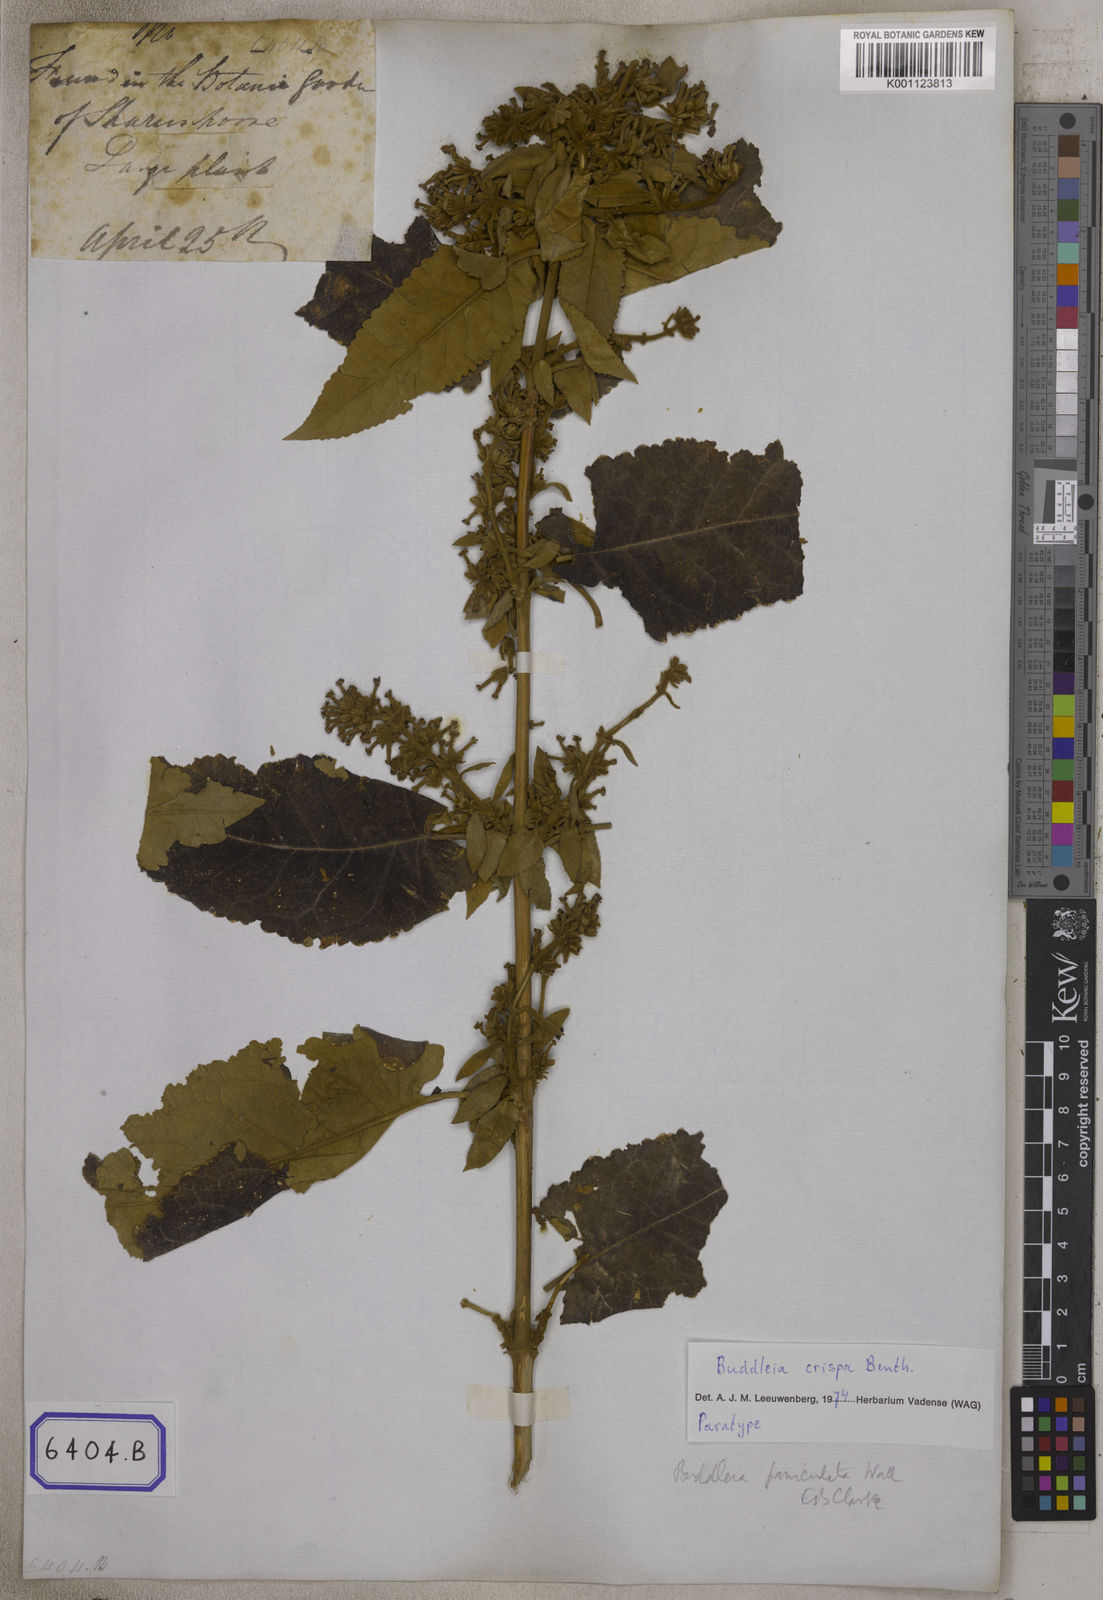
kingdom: Plantae
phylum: Tracheophyta
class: Magnoliopsida
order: Lamiales
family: Scrophulariaceae
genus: Buddleja
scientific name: Buddleja crispa
